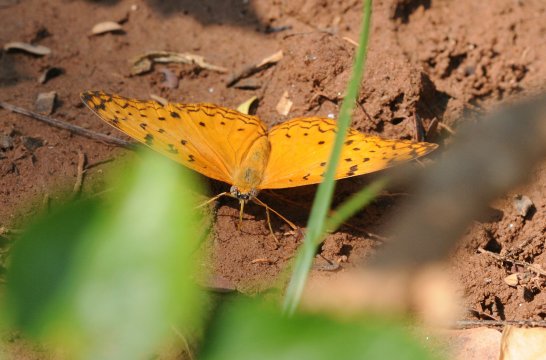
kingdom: Animalia
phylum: Arthropoda
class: Insecta
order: Lepidoptera
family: Nymphalidae
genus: Phalanta
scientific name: Phalanta phalantha
